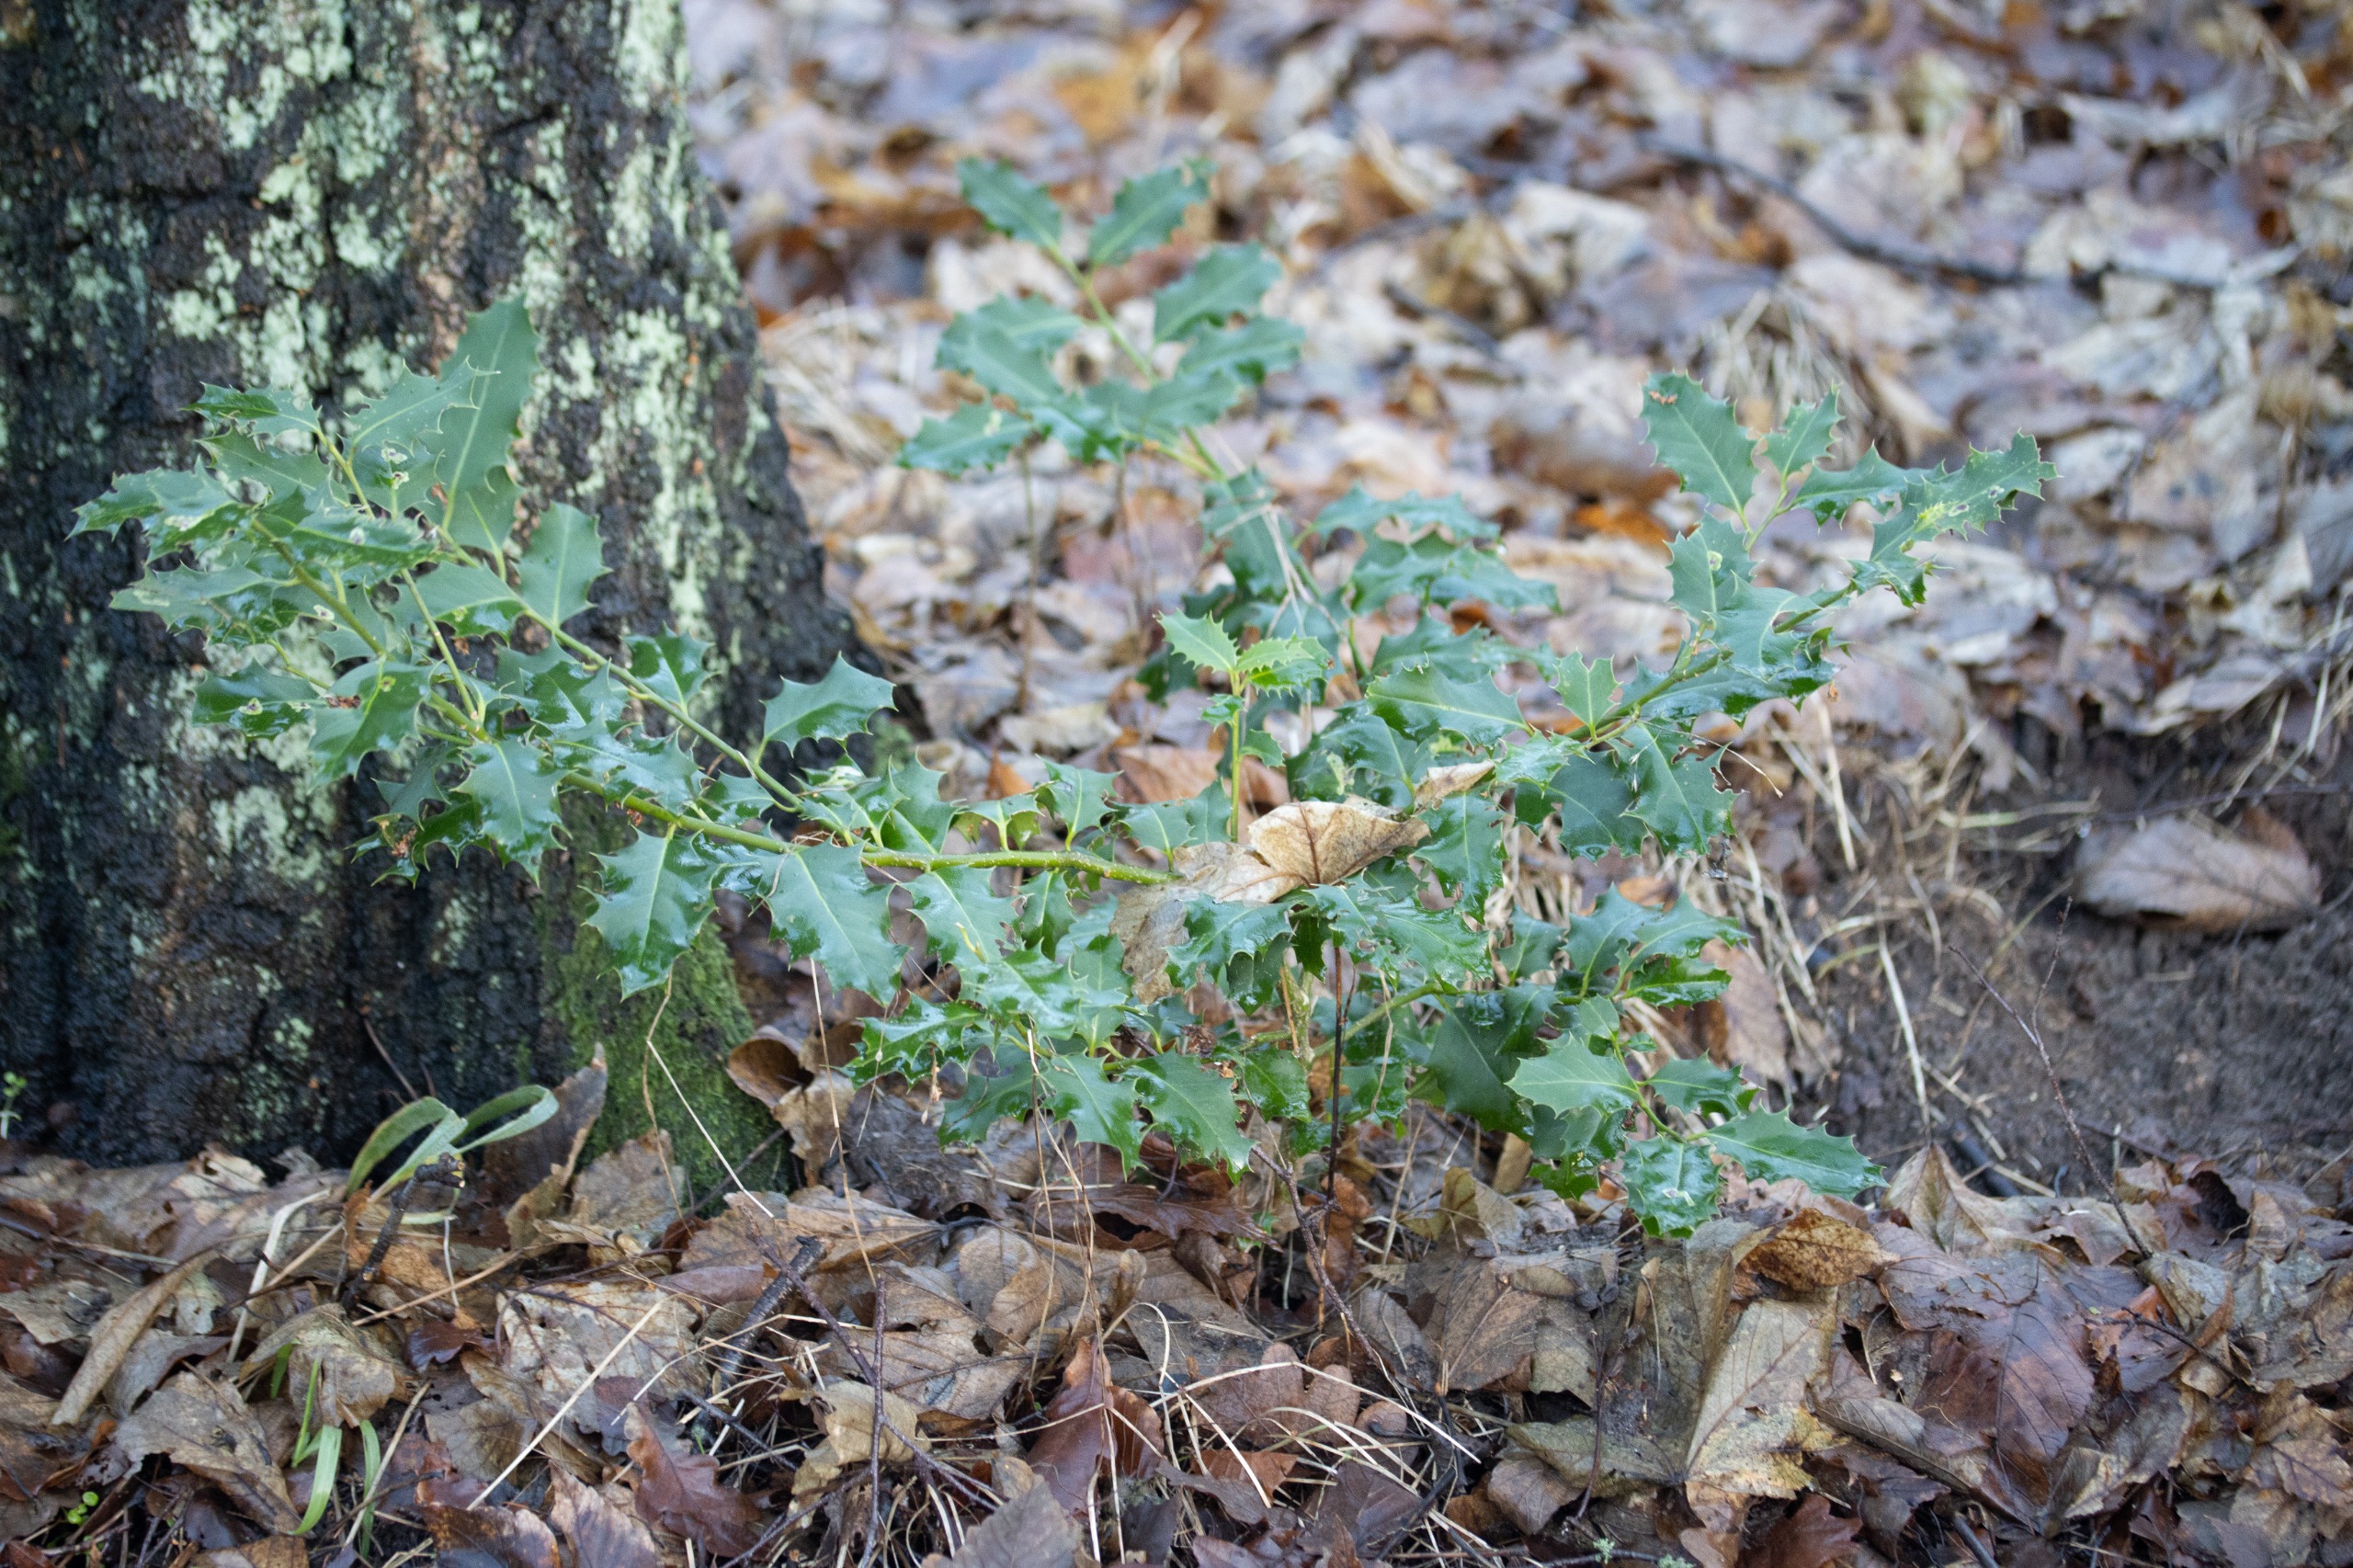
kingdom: Plantae
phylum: Tracheophyta
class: Magnoliopsida
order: Aquifoliales
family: Aquifoliaceae
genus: Ilex
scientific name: Ilex aquifolium
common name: Kristtorn
